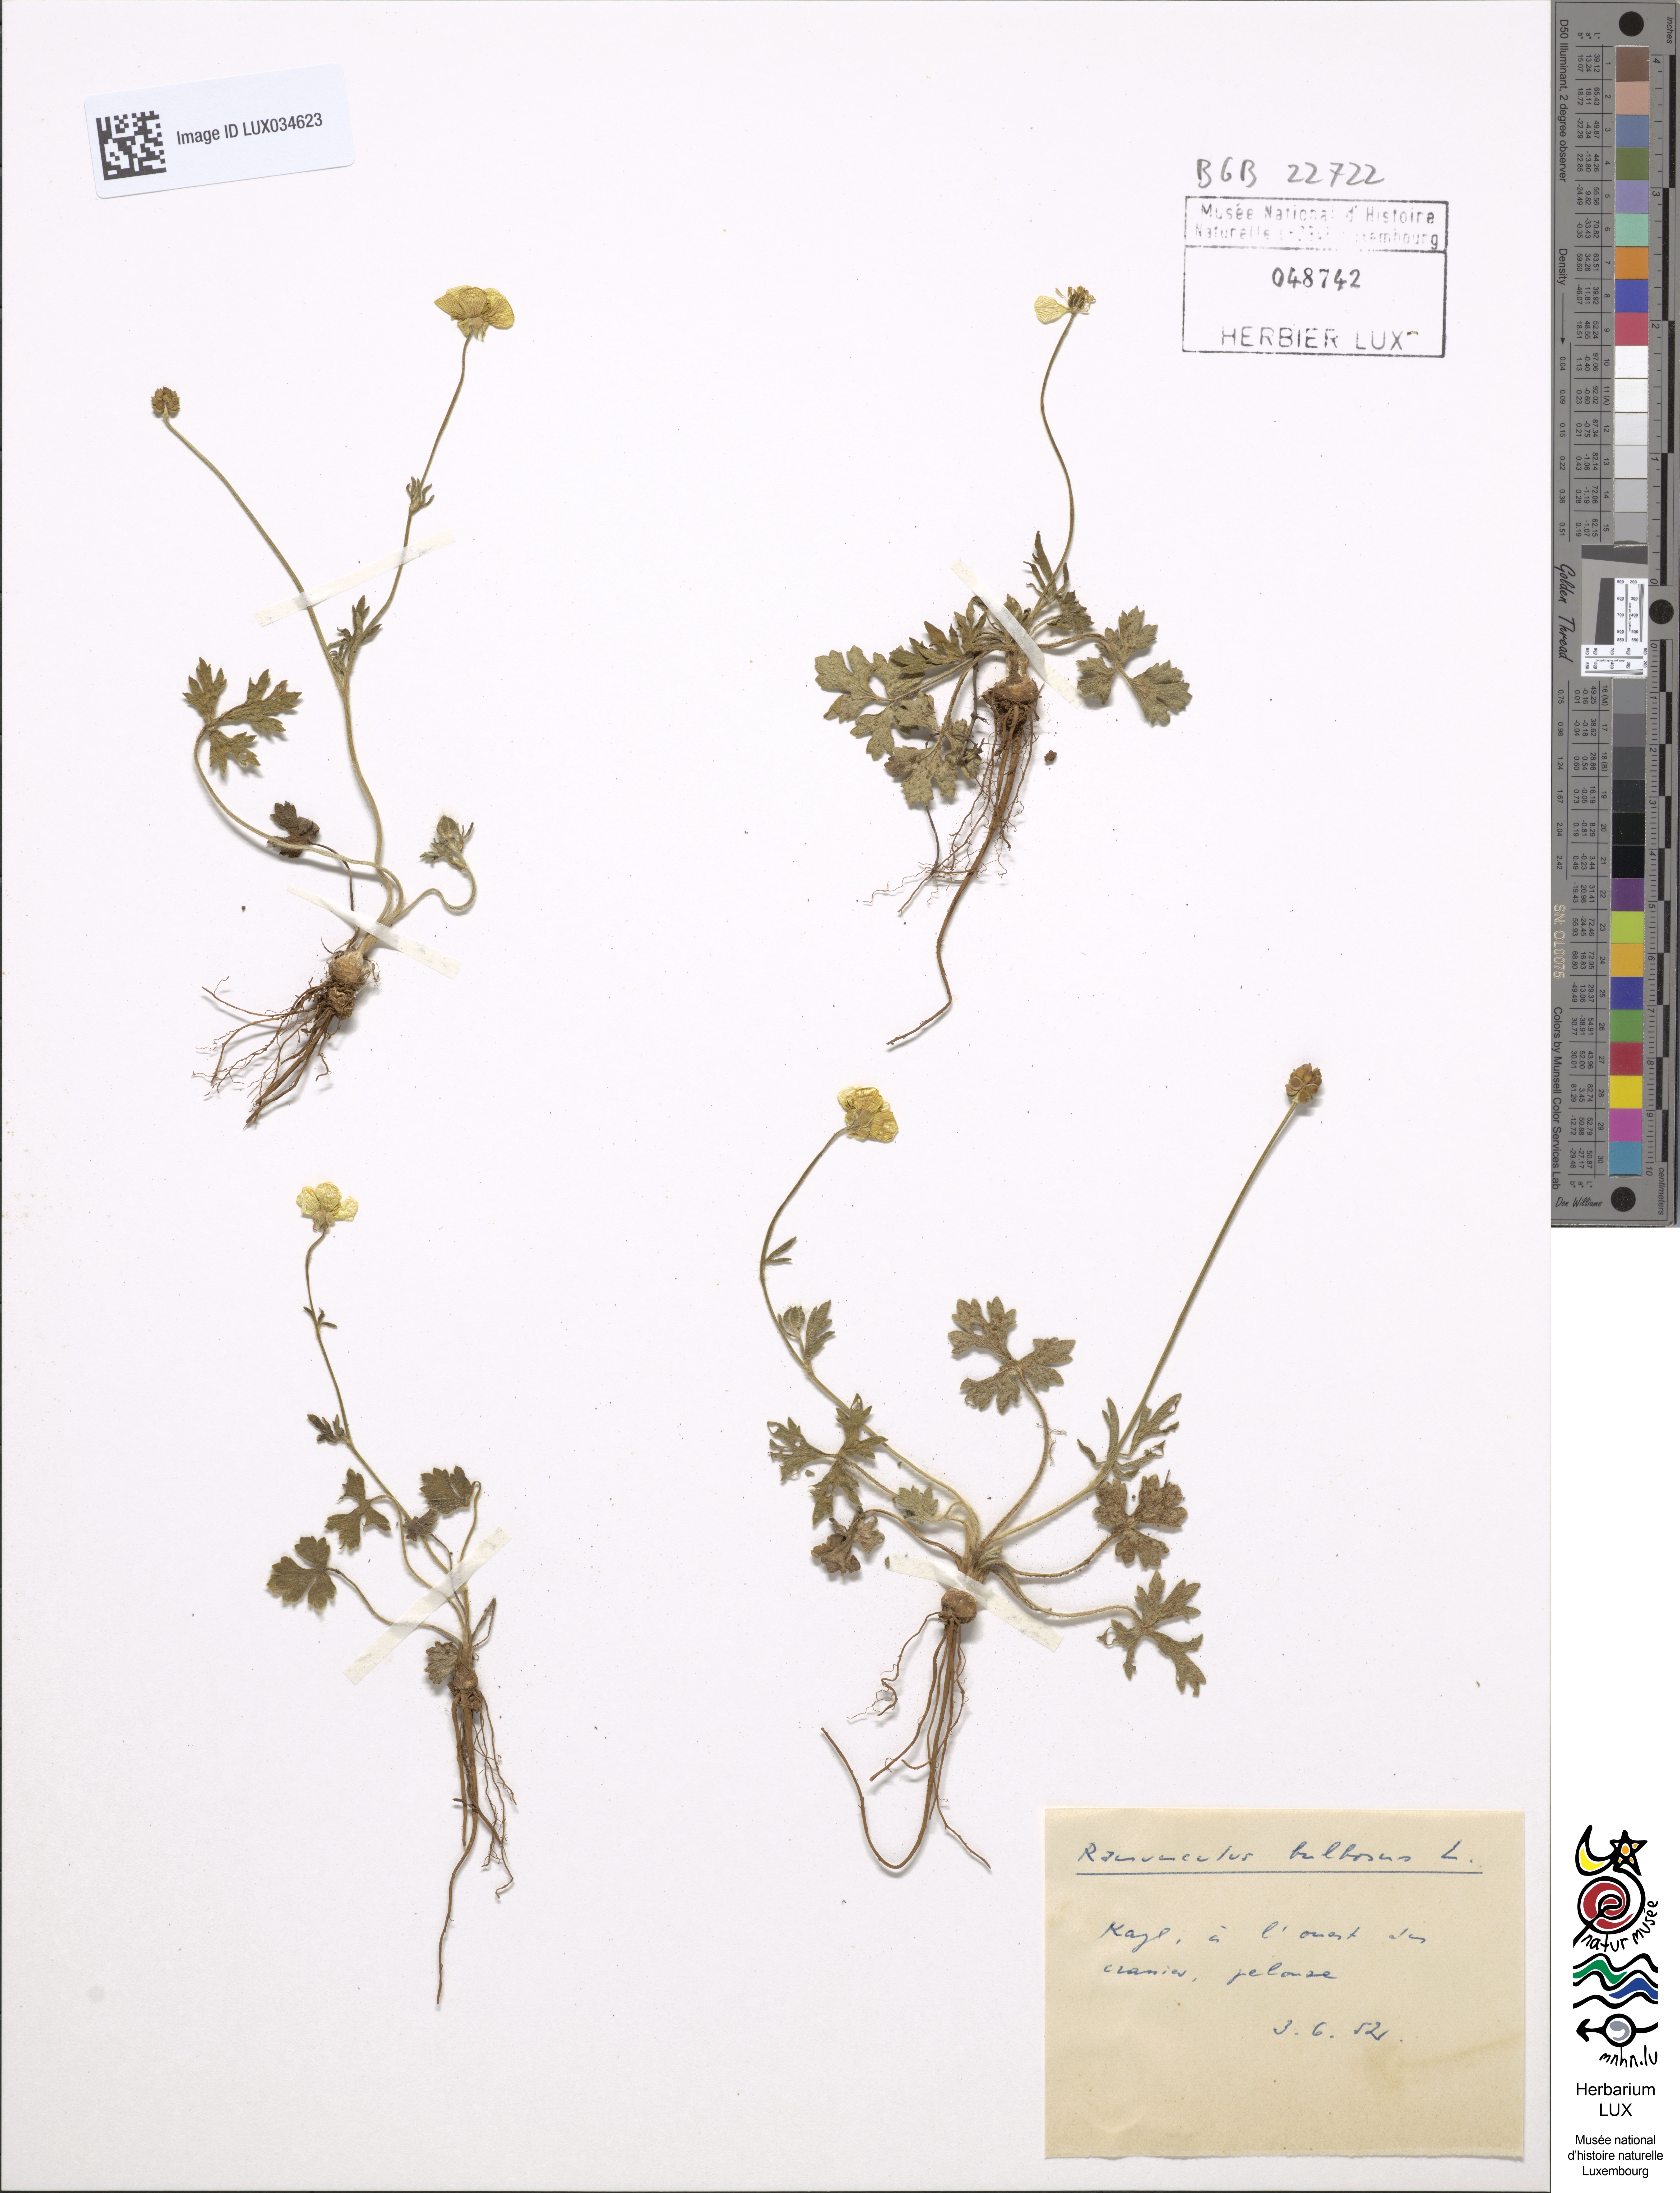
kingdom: Plantae
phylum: Tracheophyta
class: Magnoliopsida
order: Ranunculales
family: Ranunculaceae
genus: Ranunculus
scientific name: Ranunculus bulbosus
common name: Bulbous buttercup
